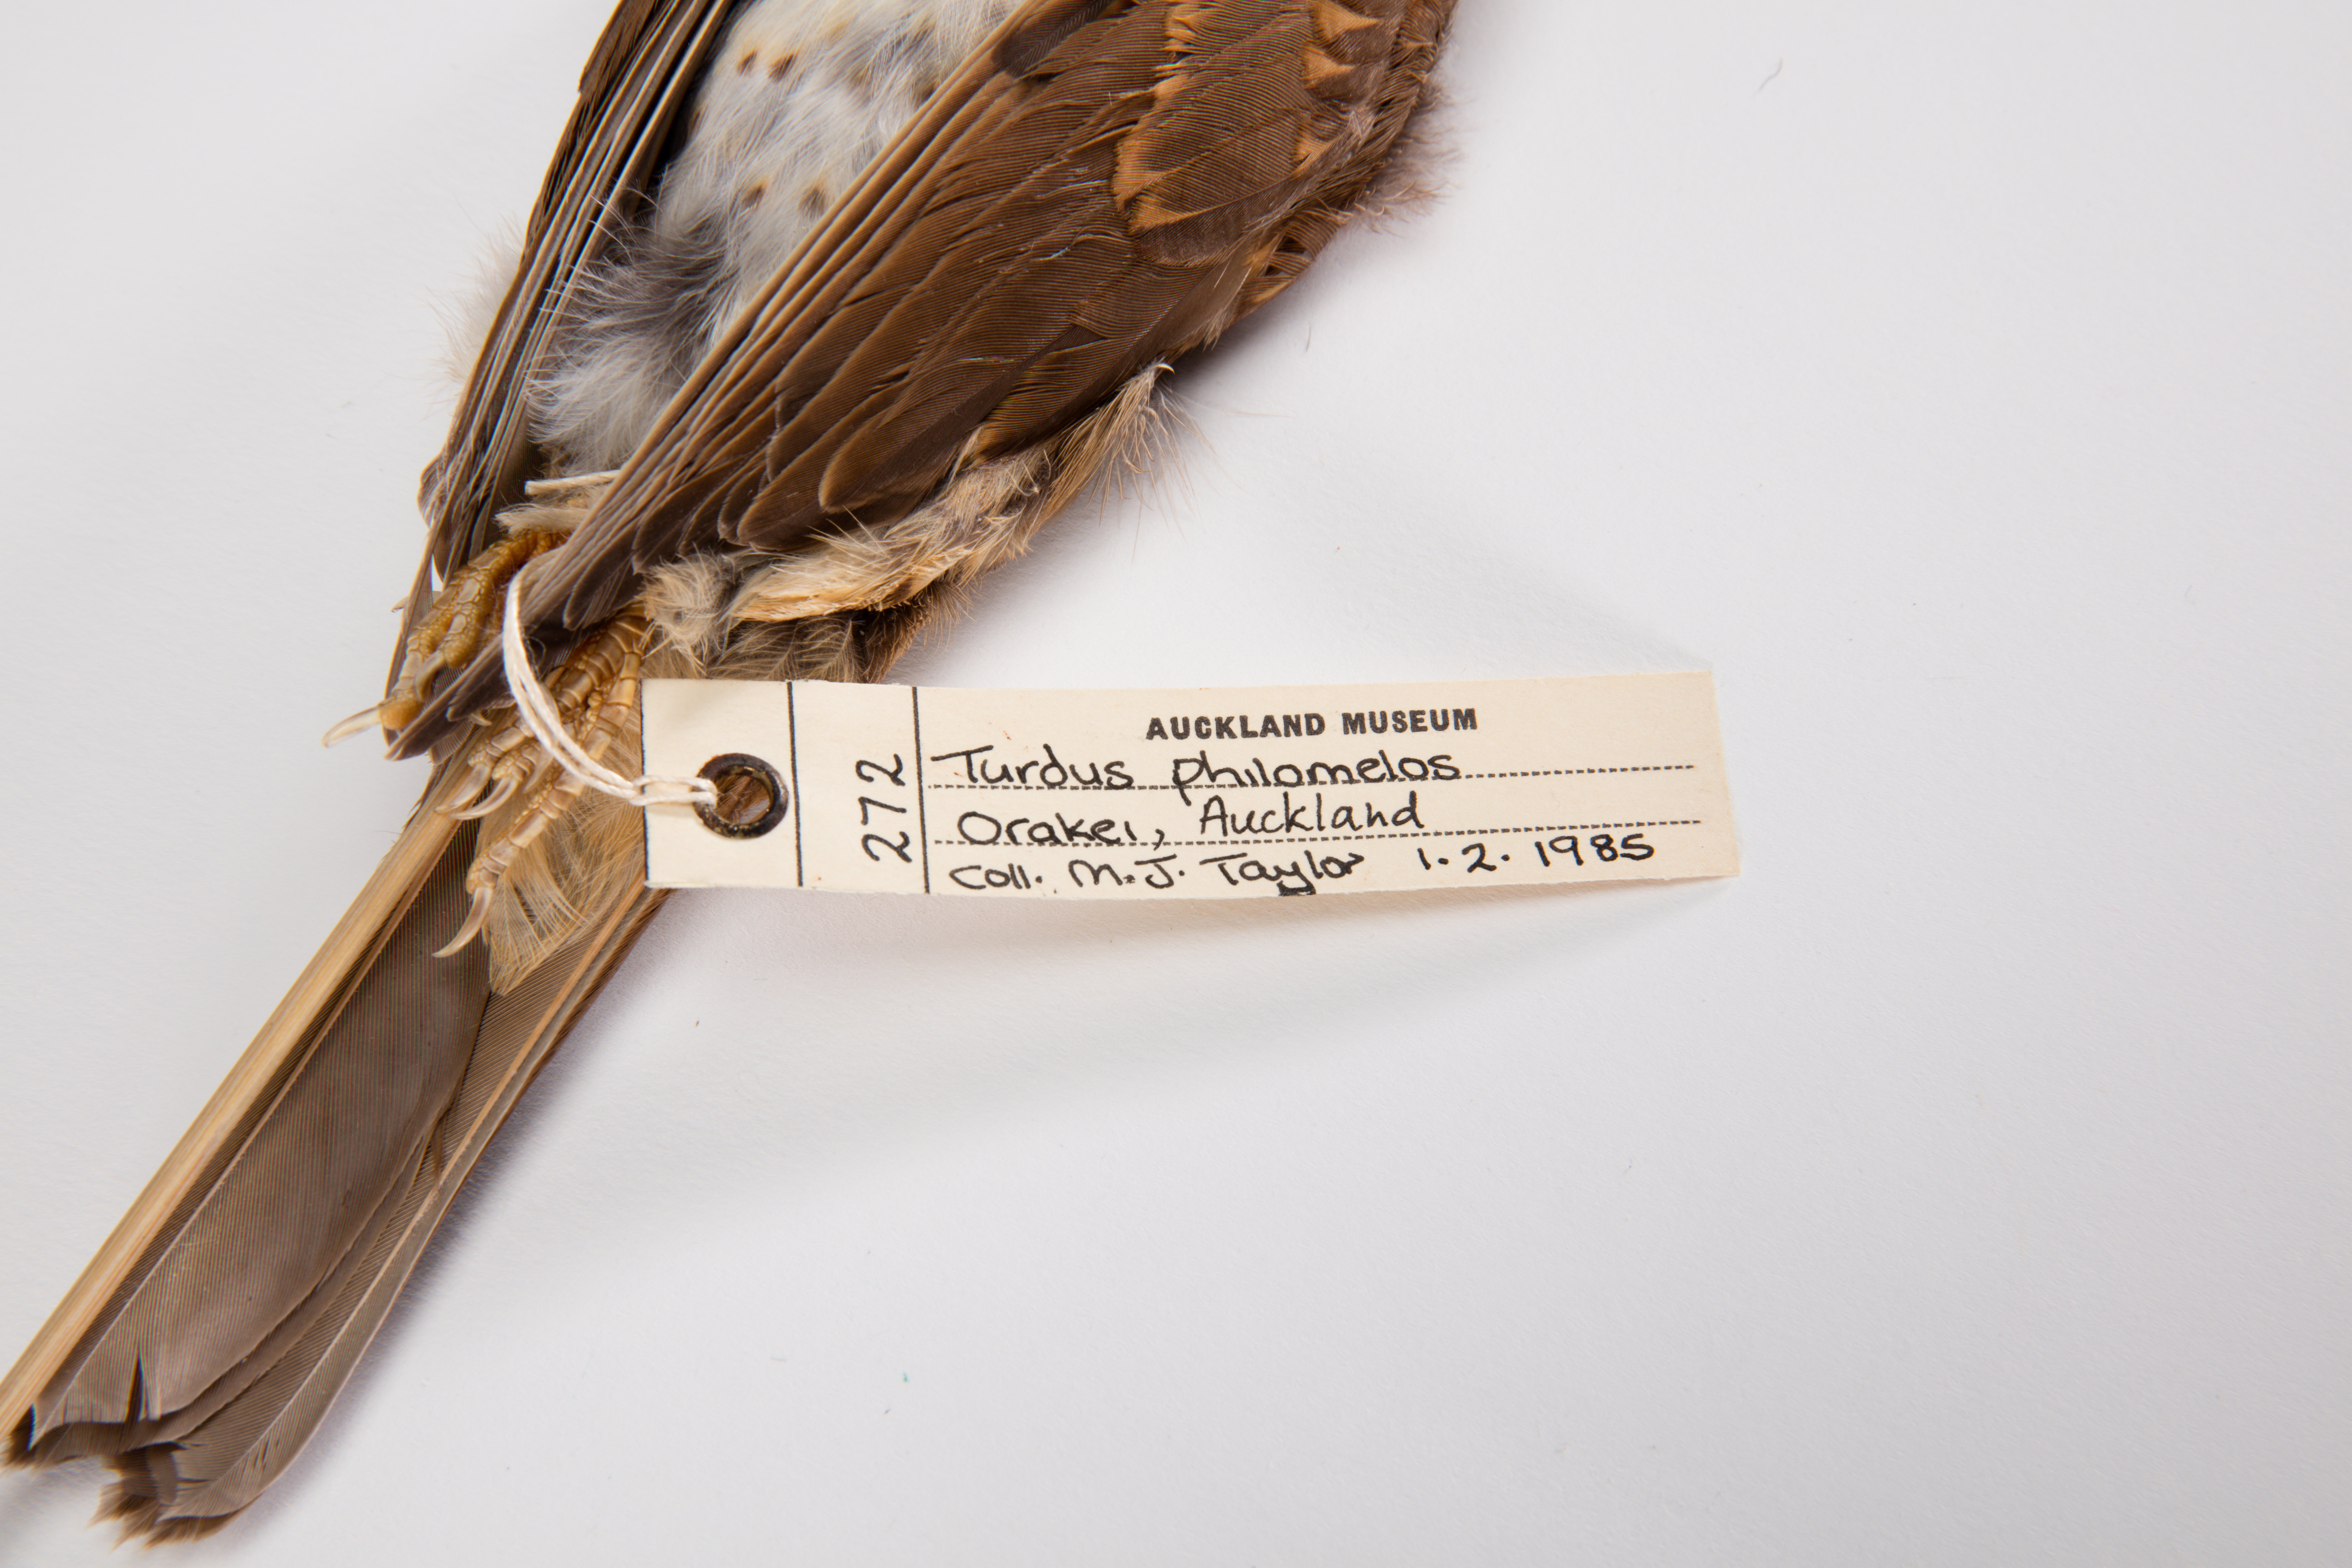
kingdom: Animalia
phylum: Chordata
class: Aves
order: Passeriformes
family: Turdidae
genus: Turdus
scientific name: Turdus philomelos
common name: Song thrush
